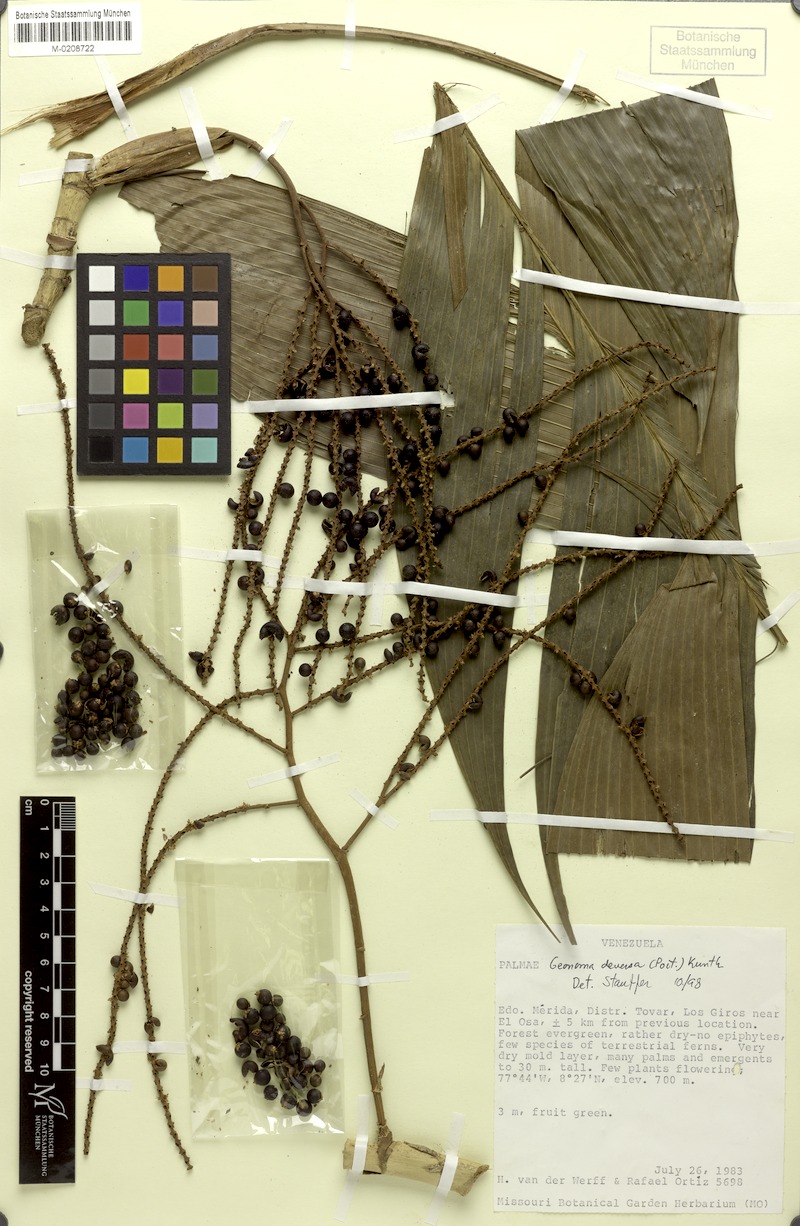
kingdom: Plantae
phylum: Tracheophyta
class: Liliopsida
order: Arecales
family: Arecaceae
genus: Geonoma
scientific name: Geonoma deversa
